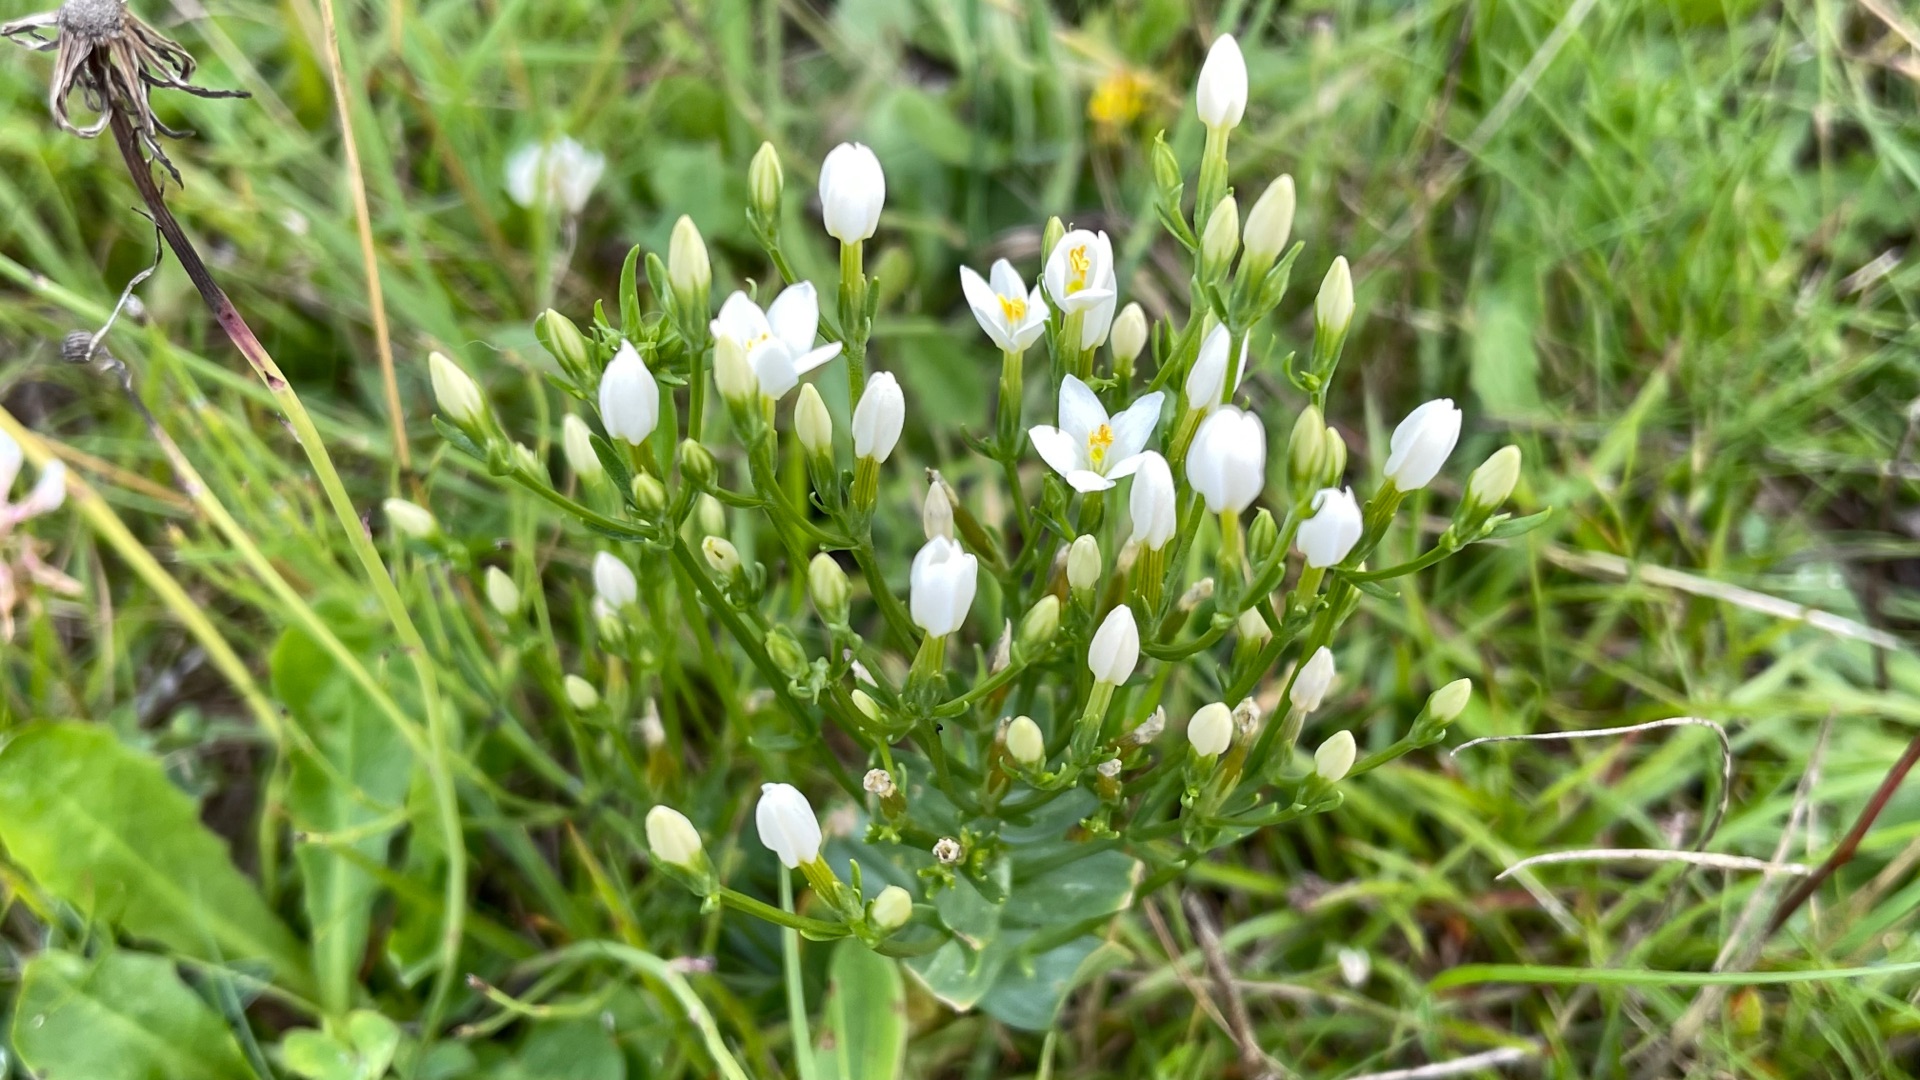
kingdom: Plantae
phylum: Tracheophyta
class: Magnoliopsida
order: Gentianales
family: Gentianaceae
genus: Centaurium
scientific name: Centaurium erythraea
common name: Mark-tusindgylden
